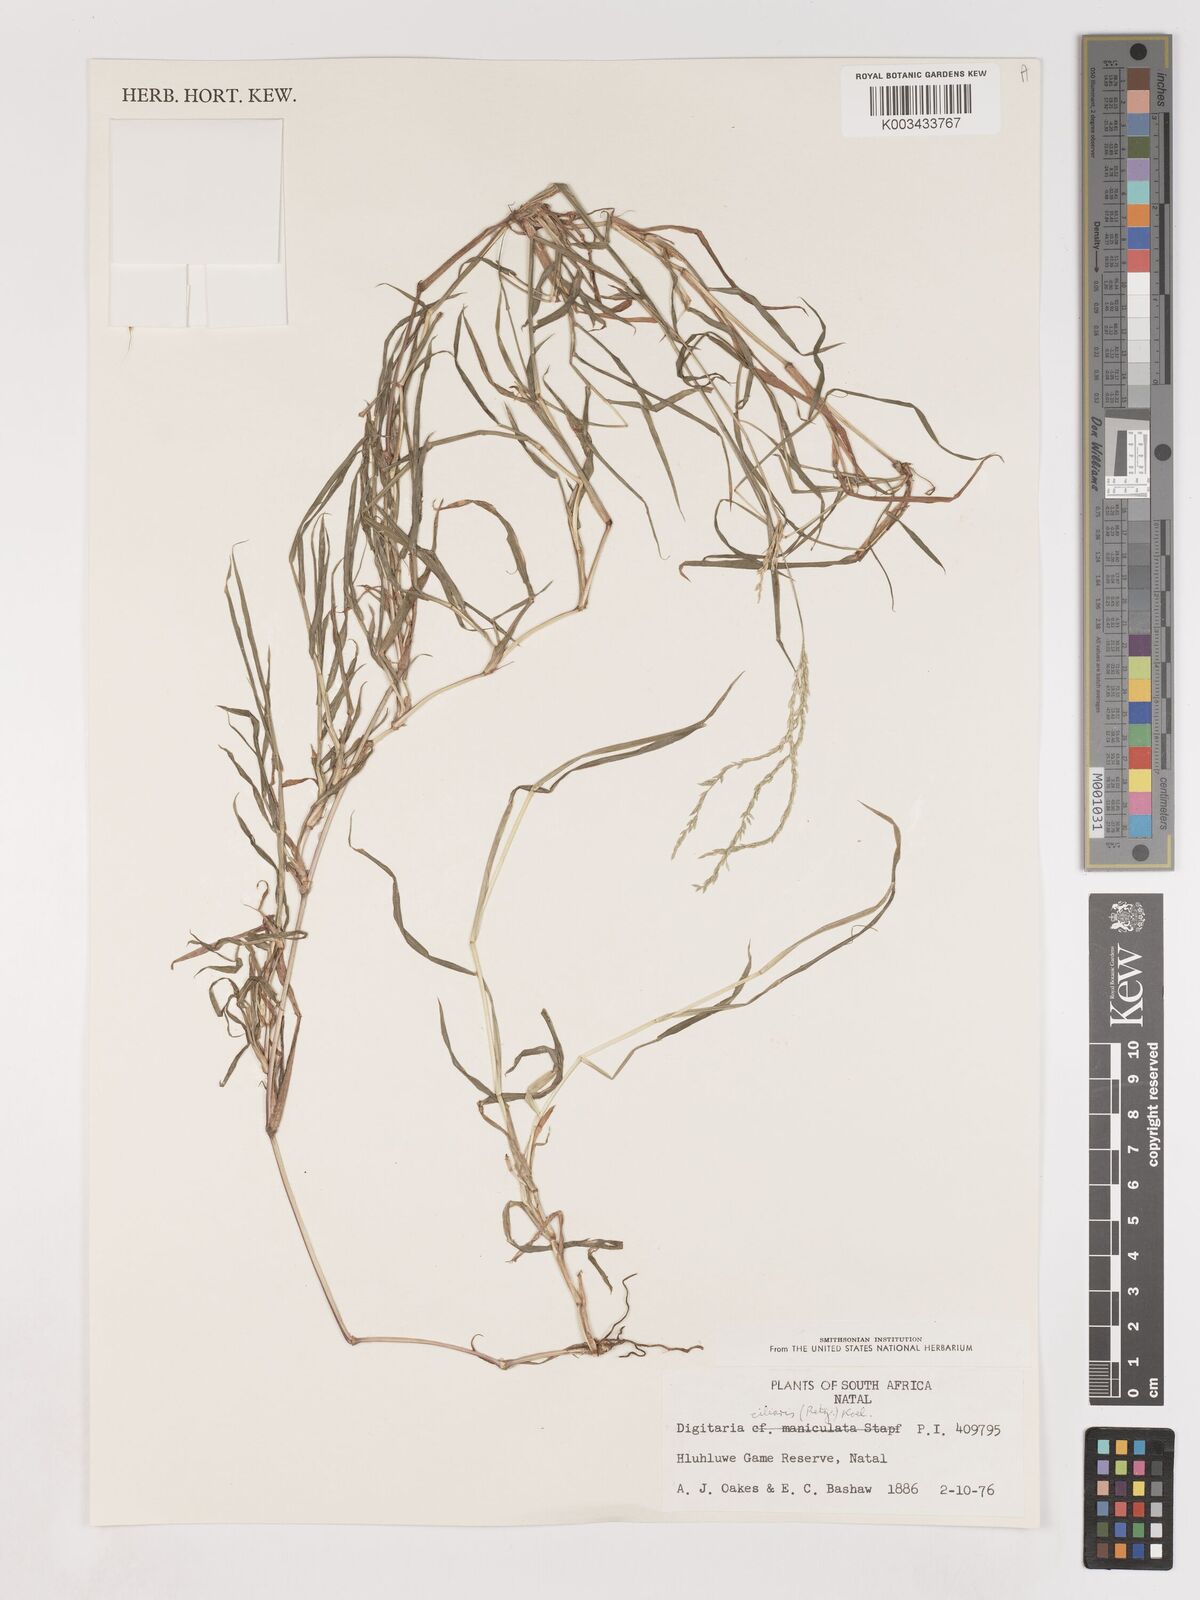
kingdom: Plantae
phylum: Tracheophyta
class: Liliopsida
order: Poales
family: Poaceae
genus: Digitaria
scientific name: Digitaria ciliaris
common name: Tropical finger-grass
